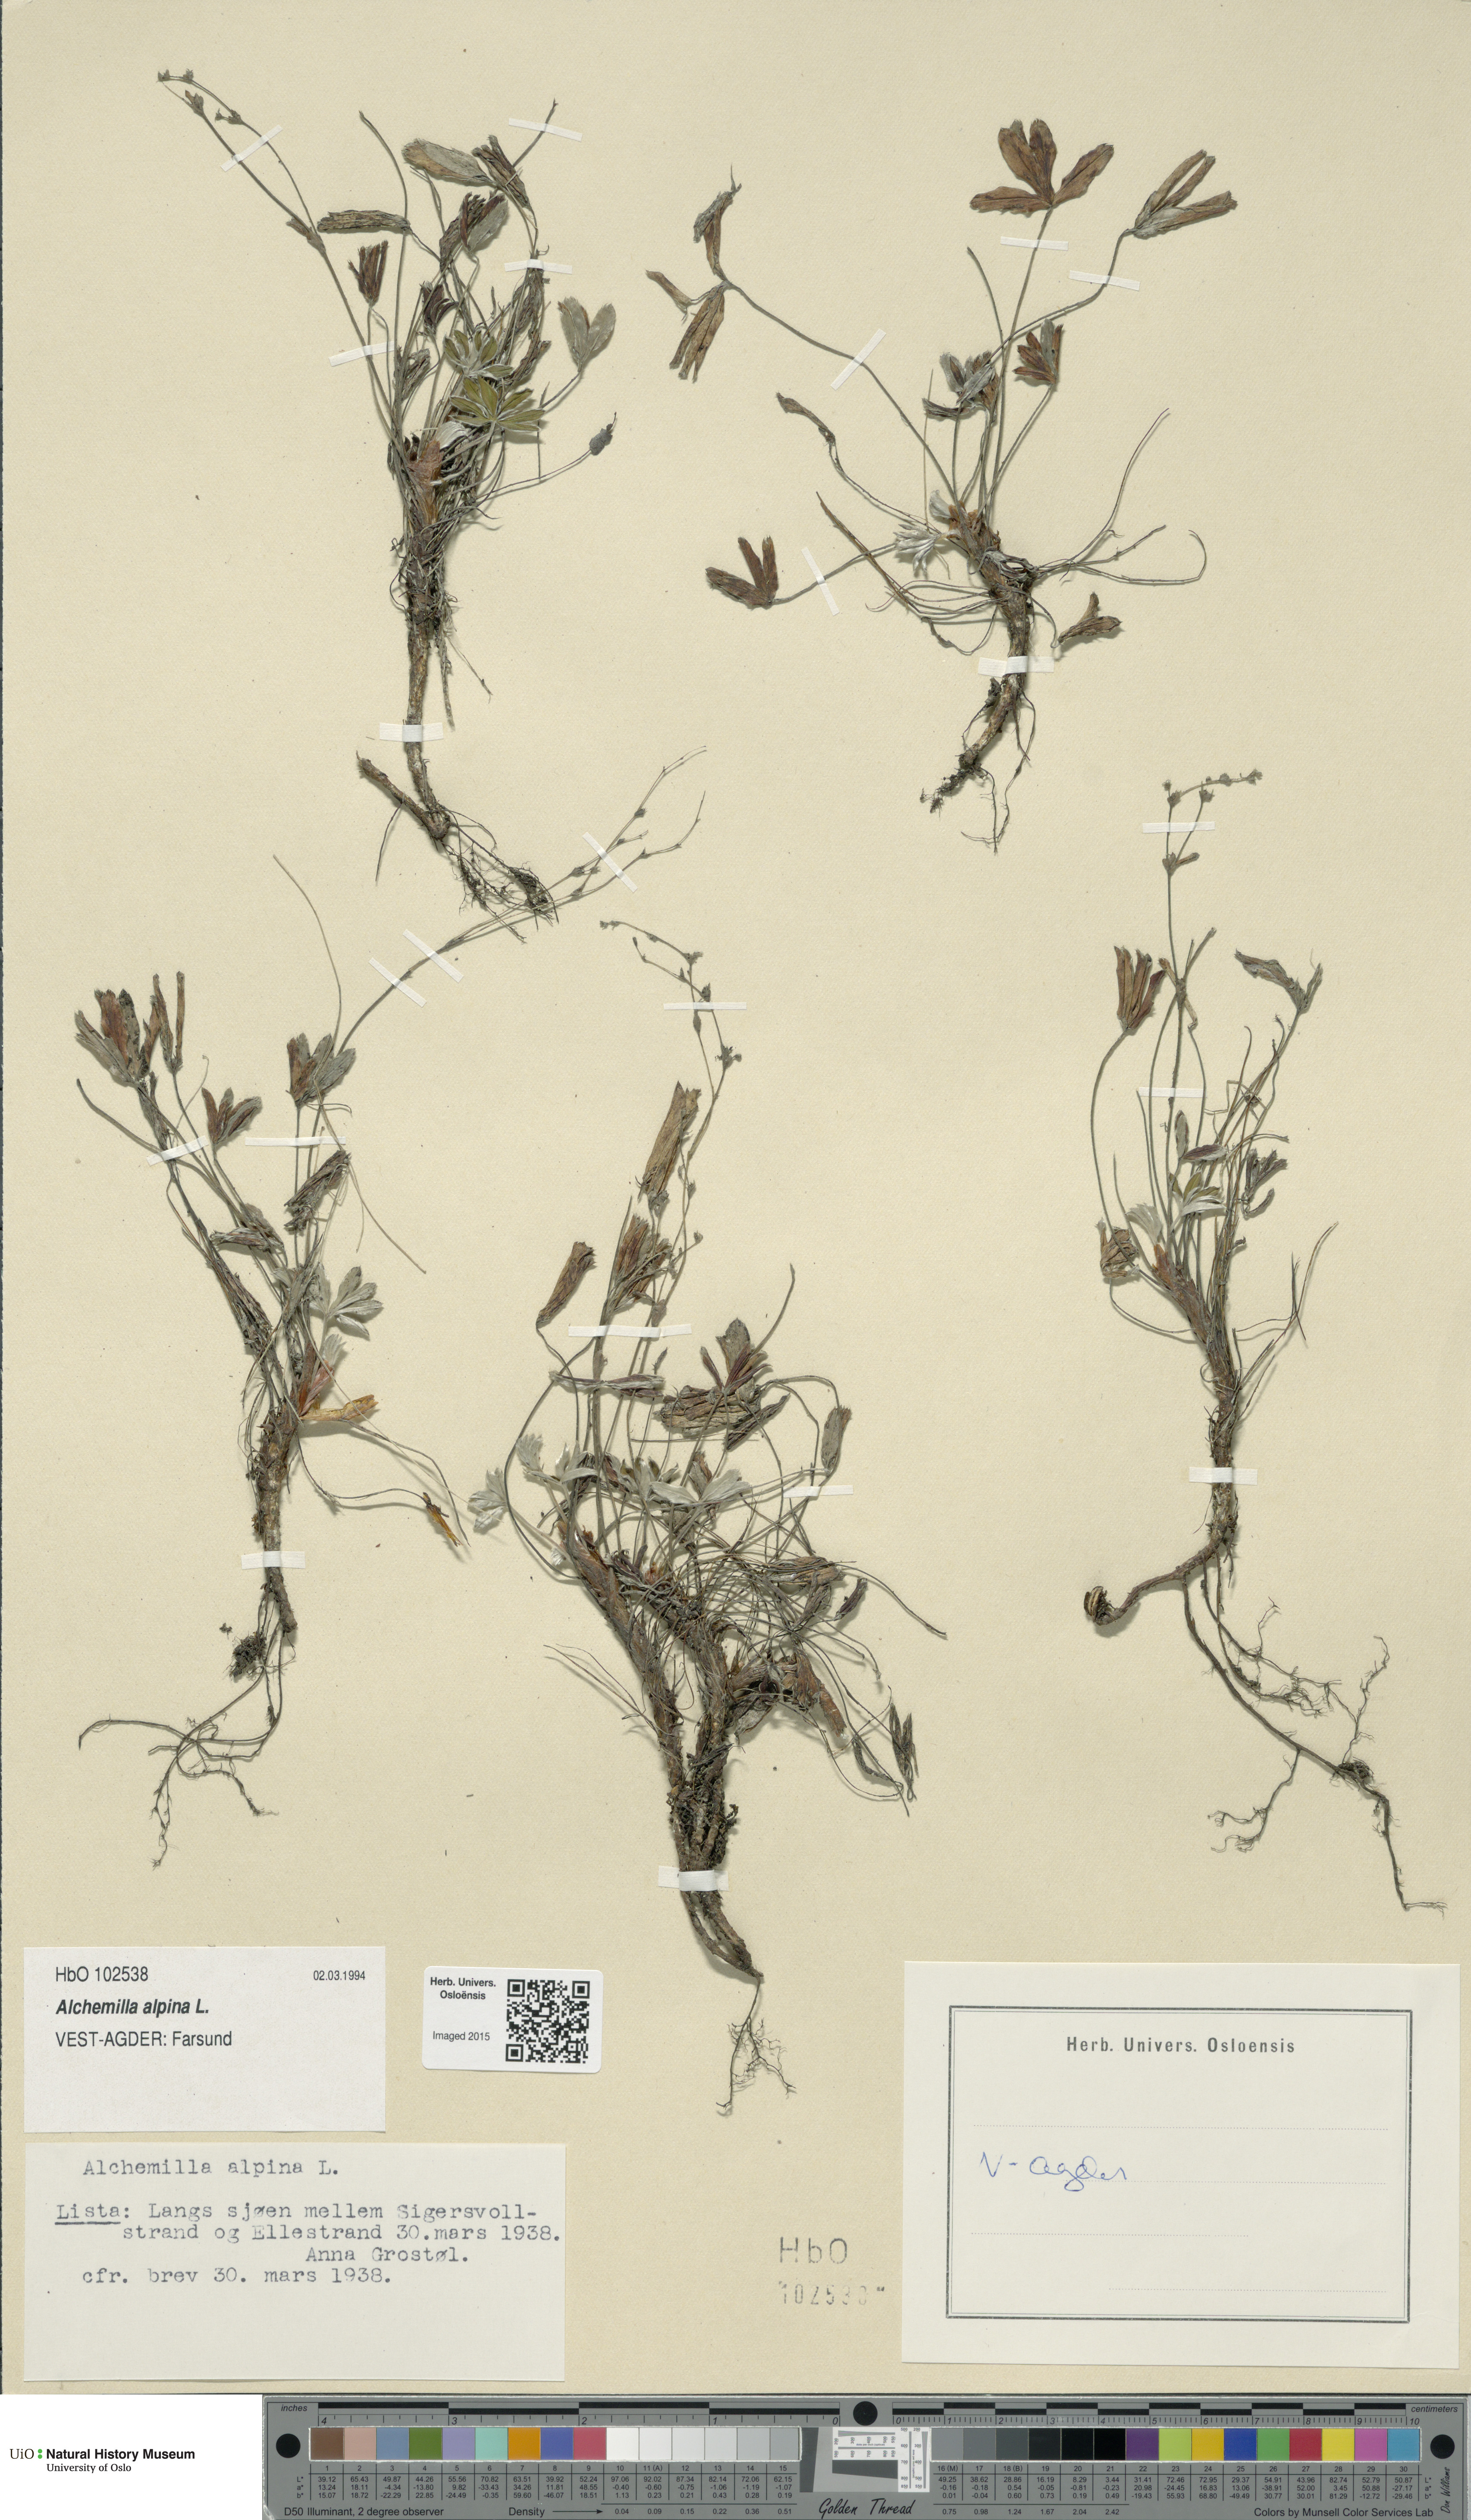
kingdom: Plantae
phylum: Tracheophyta
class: Magnoliopsida
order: Rosales
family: Rosaceae
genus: Alchemilla
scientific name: Alchemilla alpina
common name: Alpine lady's-mantle
